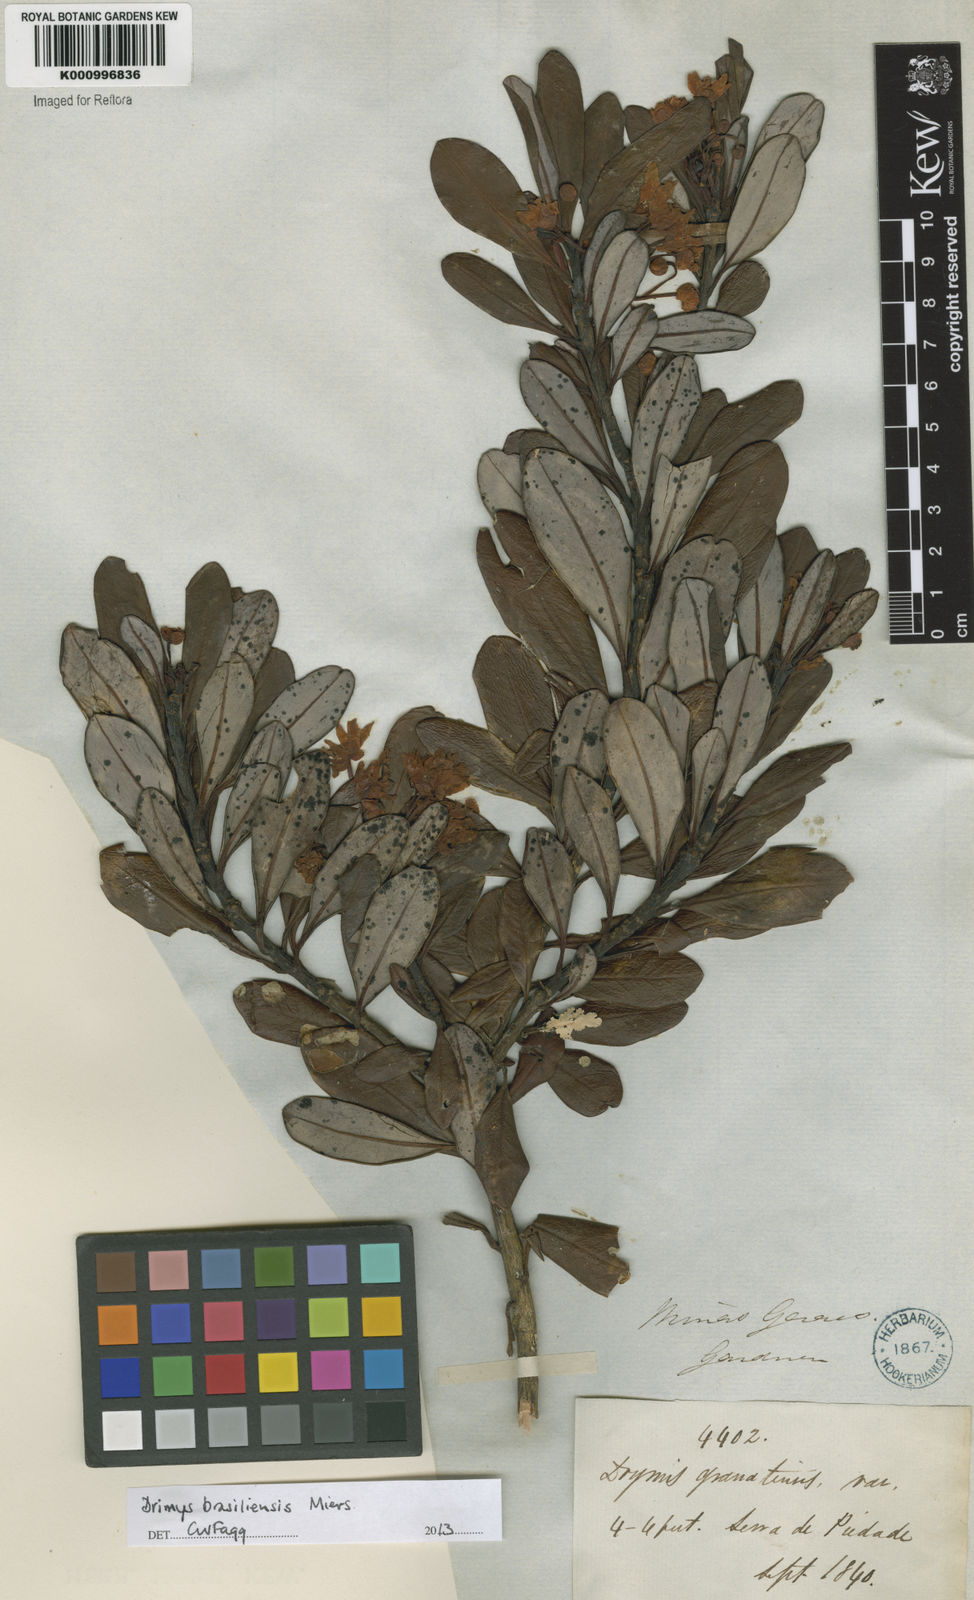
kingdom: Plantae
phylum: Tracheophyta
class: Magnoliopsida
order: Canellales
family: Winteraceae
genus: Drimys
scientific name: Drimys brasiliensis
